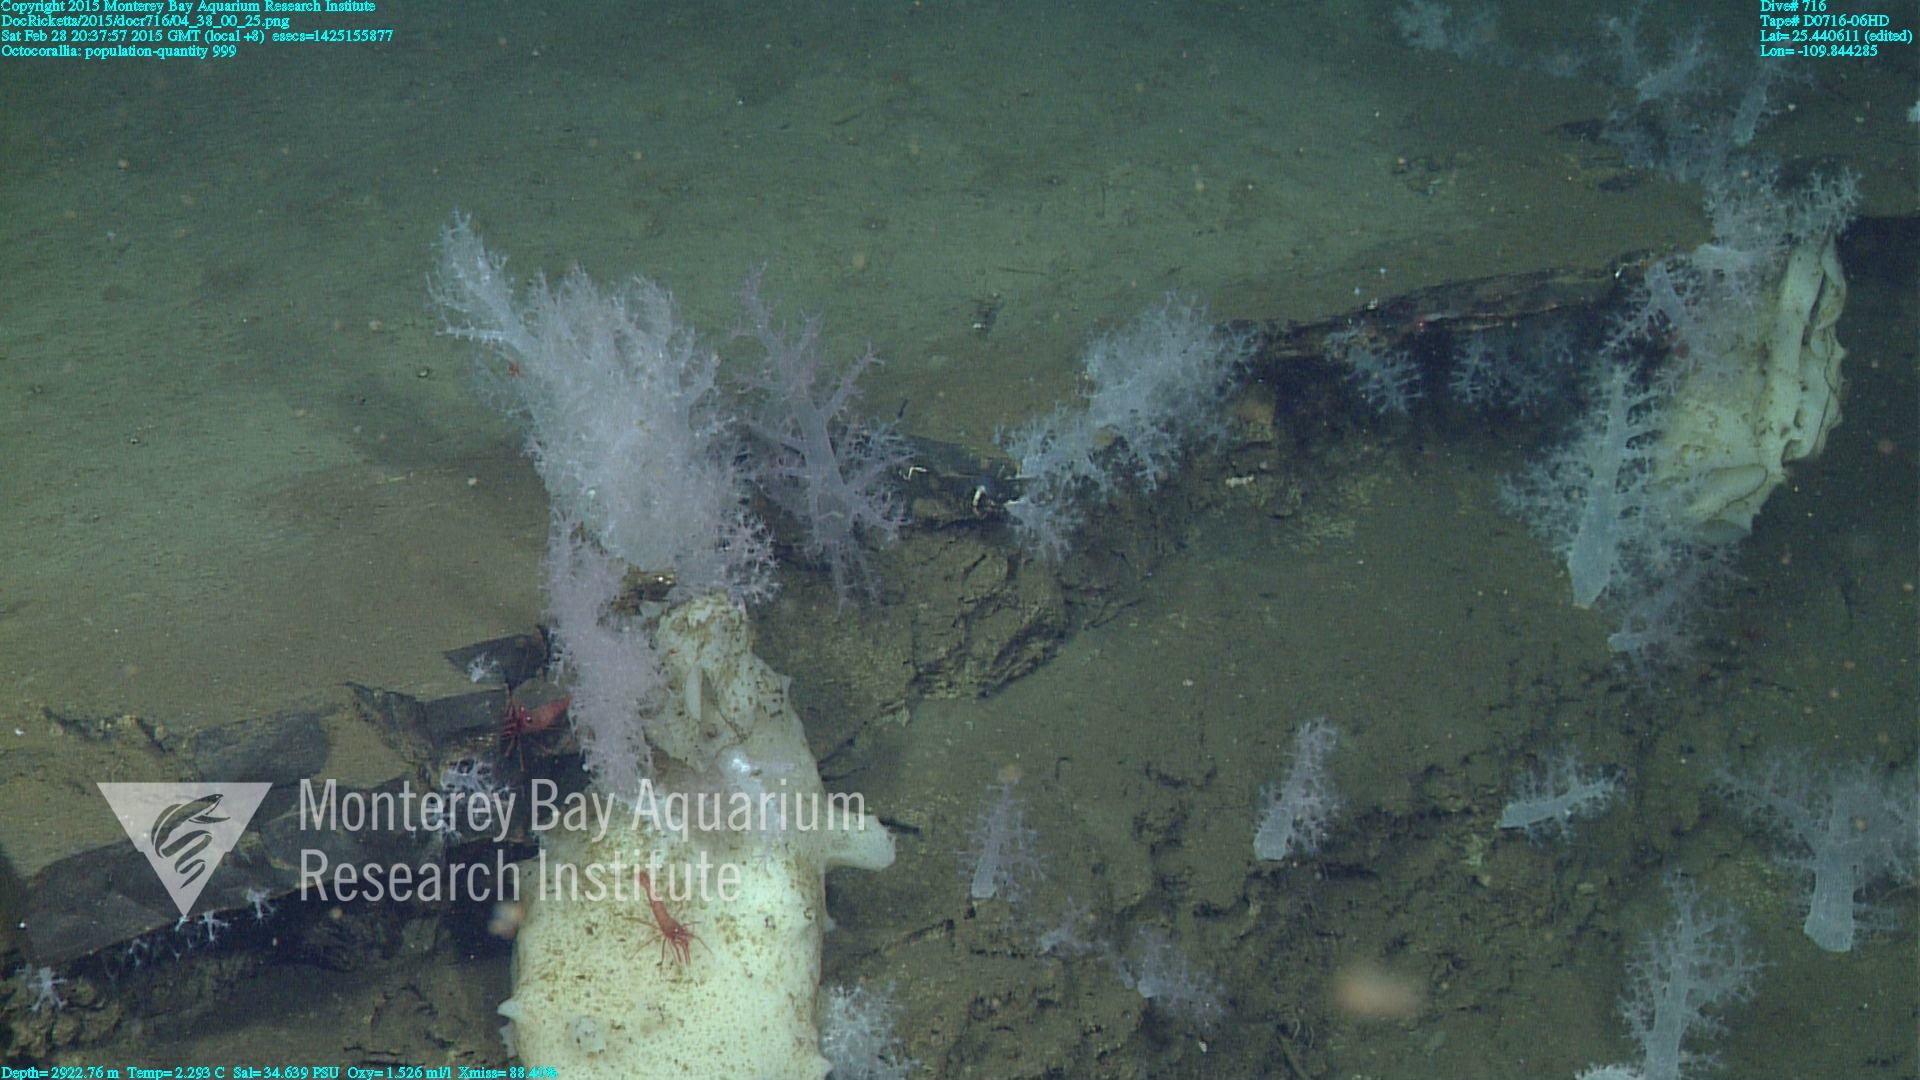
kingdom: Animalia
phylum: Cnidaria
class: Anthozoa
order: Malacalcyonacea
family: Alcyoniidae
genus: Gersemia
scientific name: Gersemia juliepackardae
